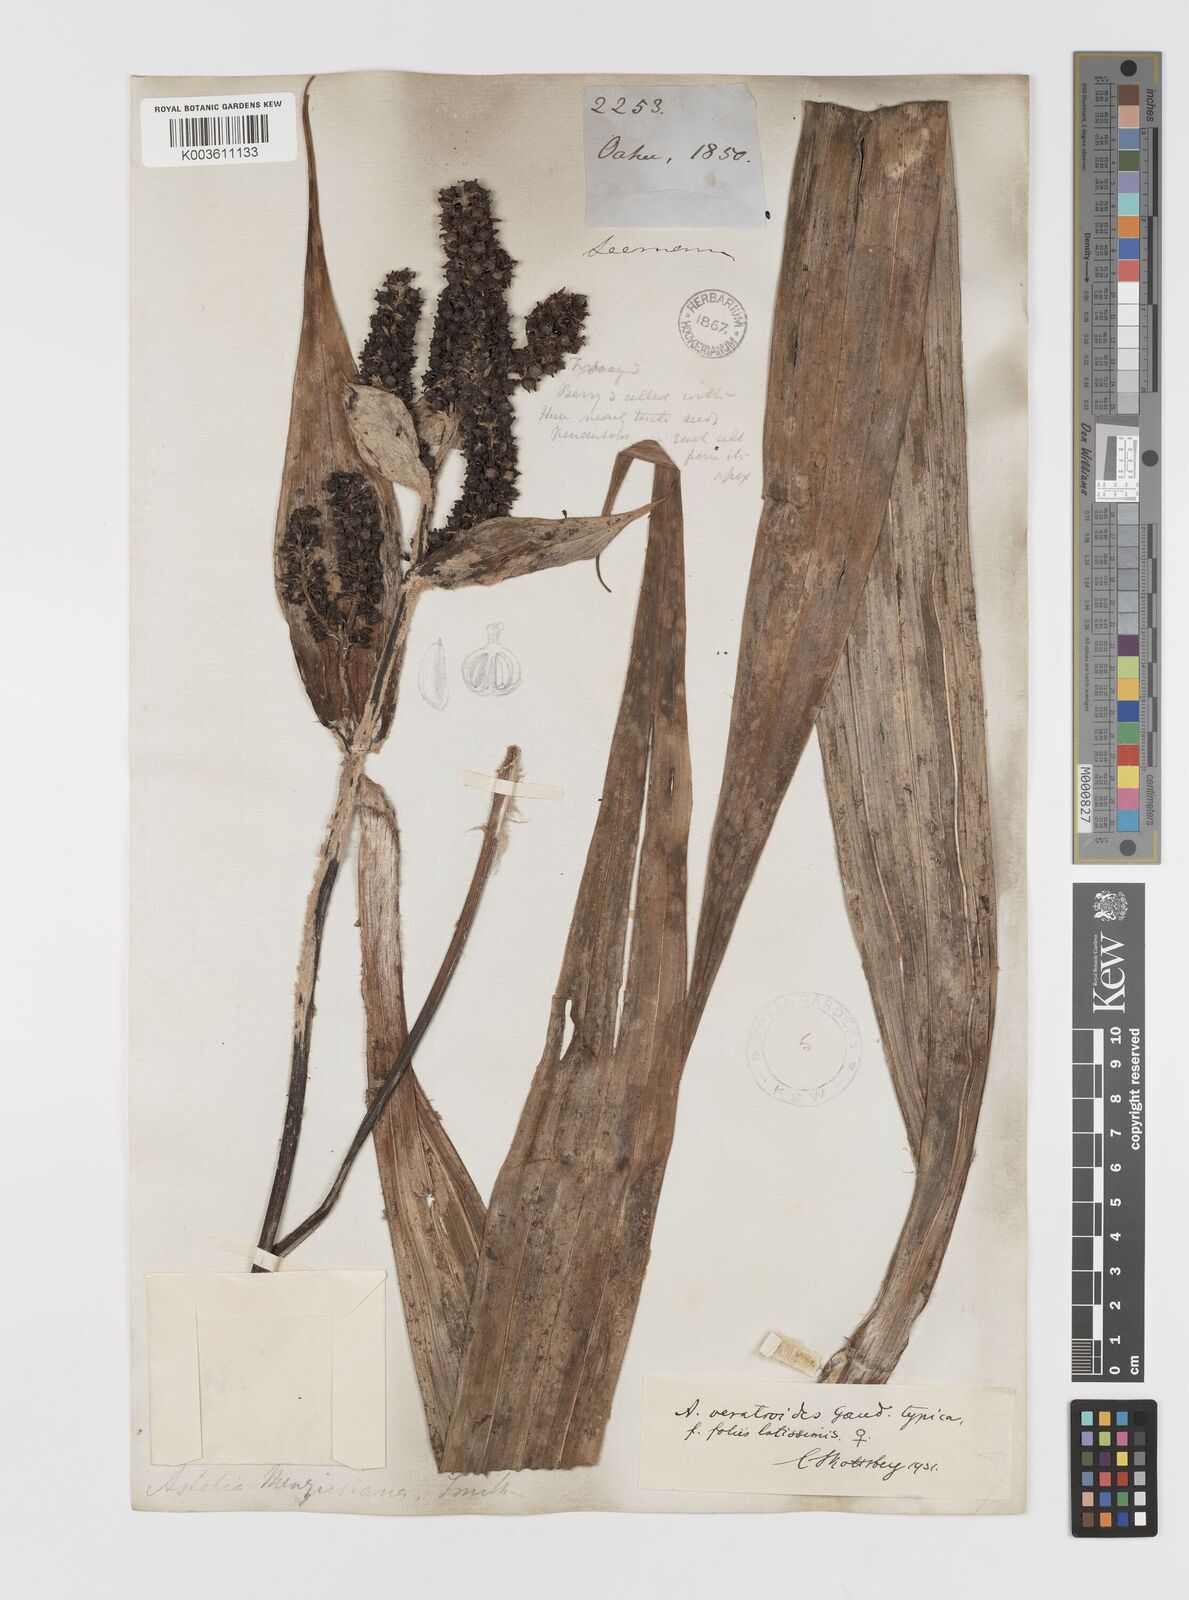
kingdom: Plantae
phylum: Tracheophyta
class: Liliopsida
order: Asparagales
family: Asteliaceae
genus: Astelia
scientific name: Astelia menziesiana
